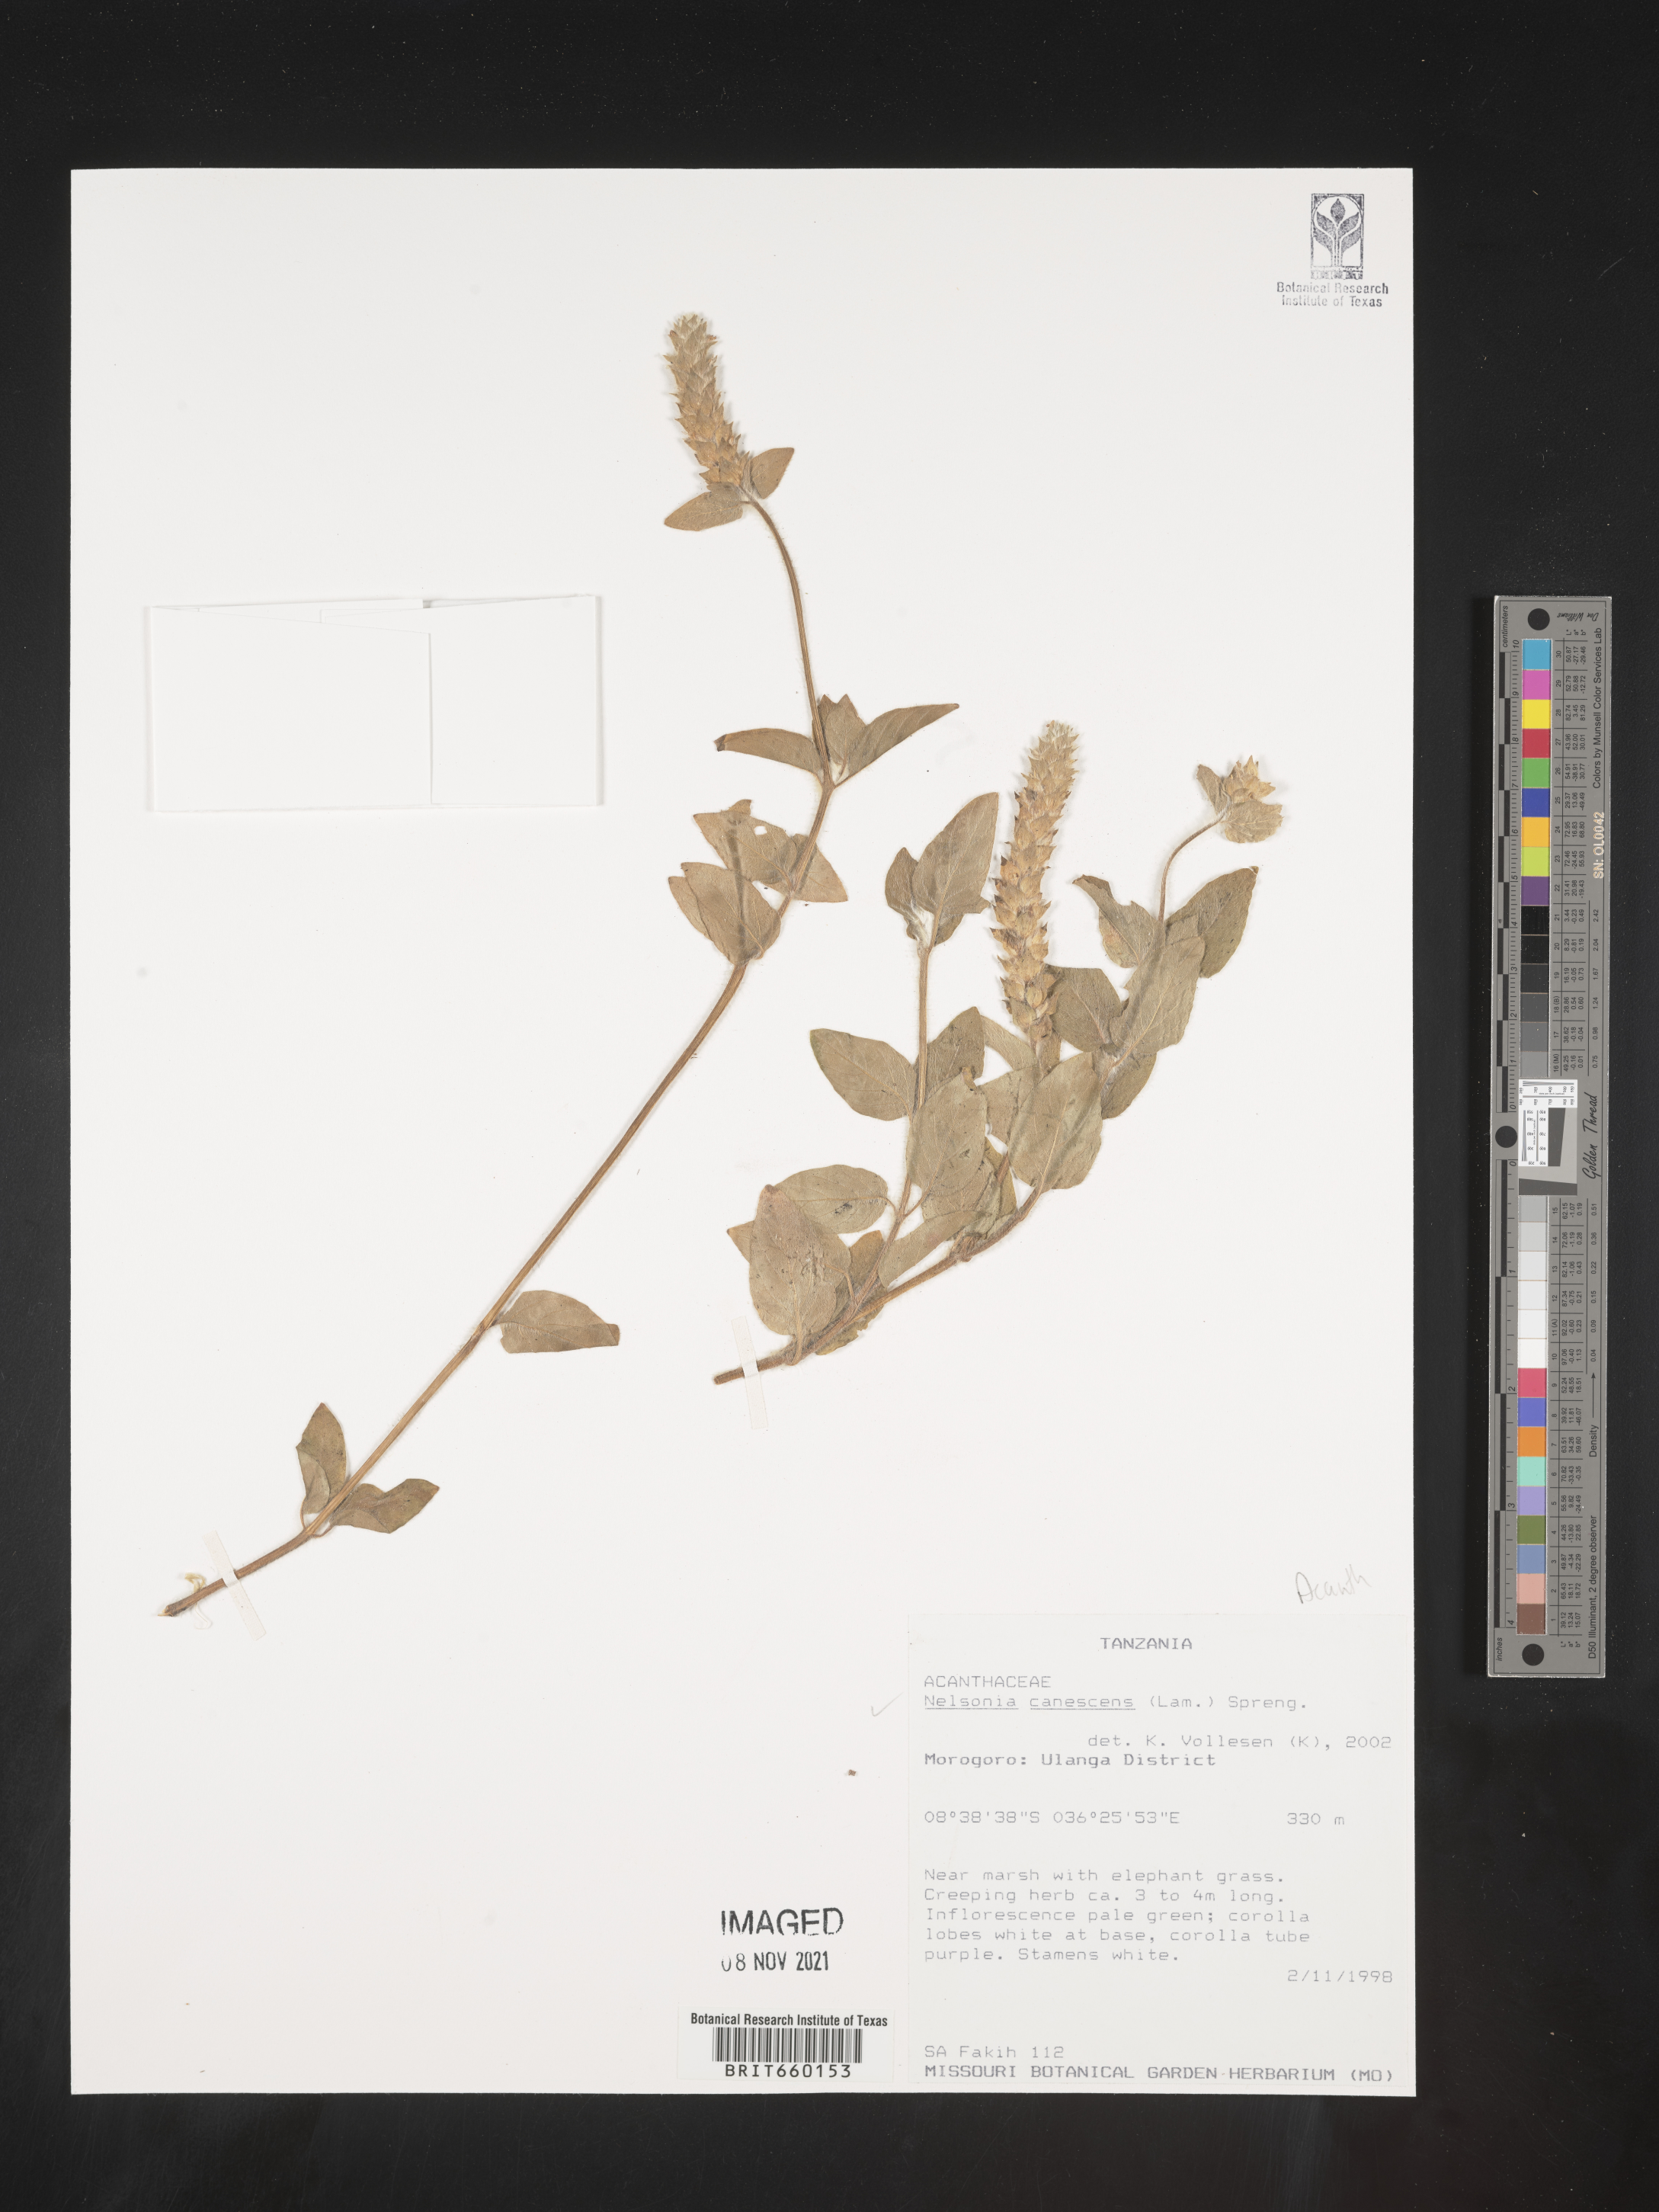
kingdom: Plantae
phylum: Tracheophyta
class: Magnoliopsida
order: Lamiales
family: Acanthaceae
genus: Nelsonia
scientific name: Nelsonia
